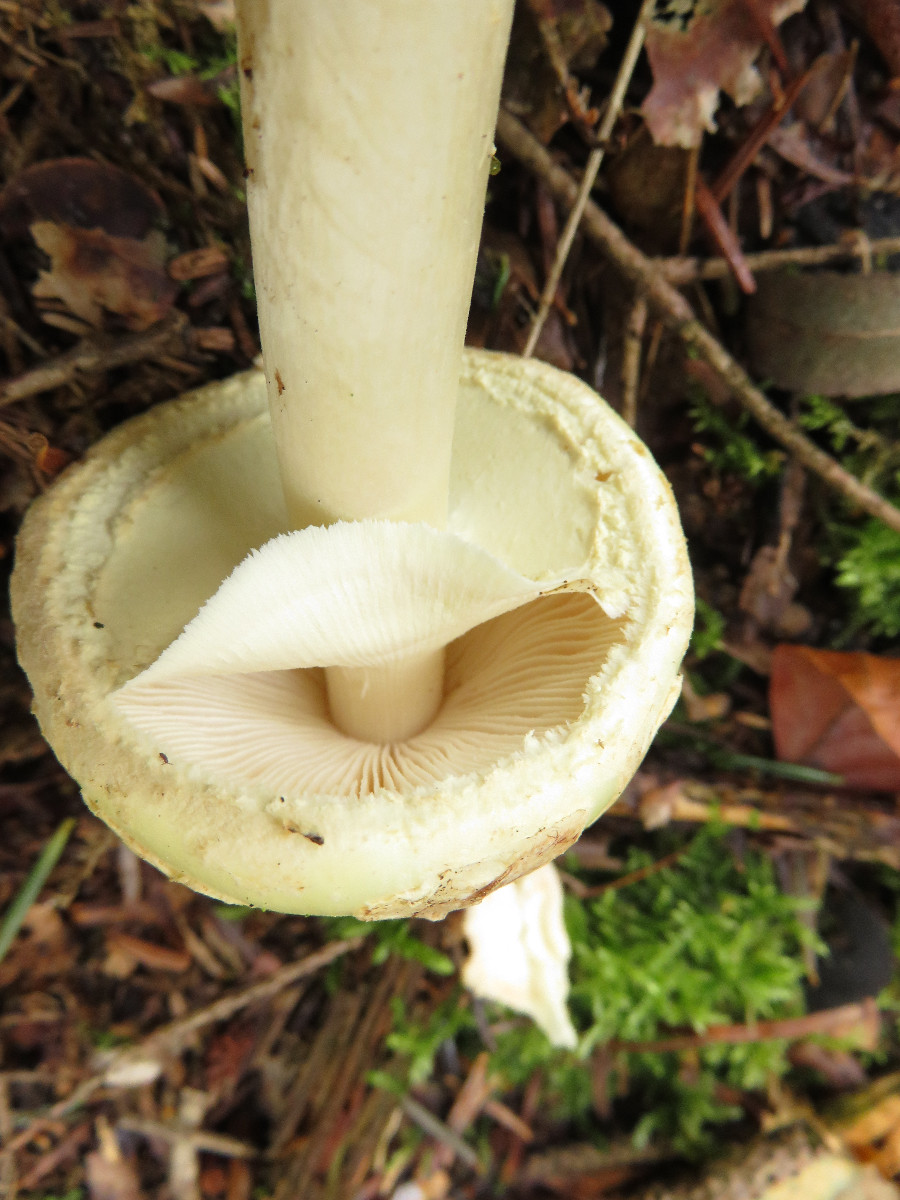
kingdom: Fungi
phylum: Basidiomycota
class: Agaricomycetes
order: Agaricales
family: Amanitaceae
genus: Amanita
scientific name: Amanita citrina
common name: kugleknoldet fluesvamp
